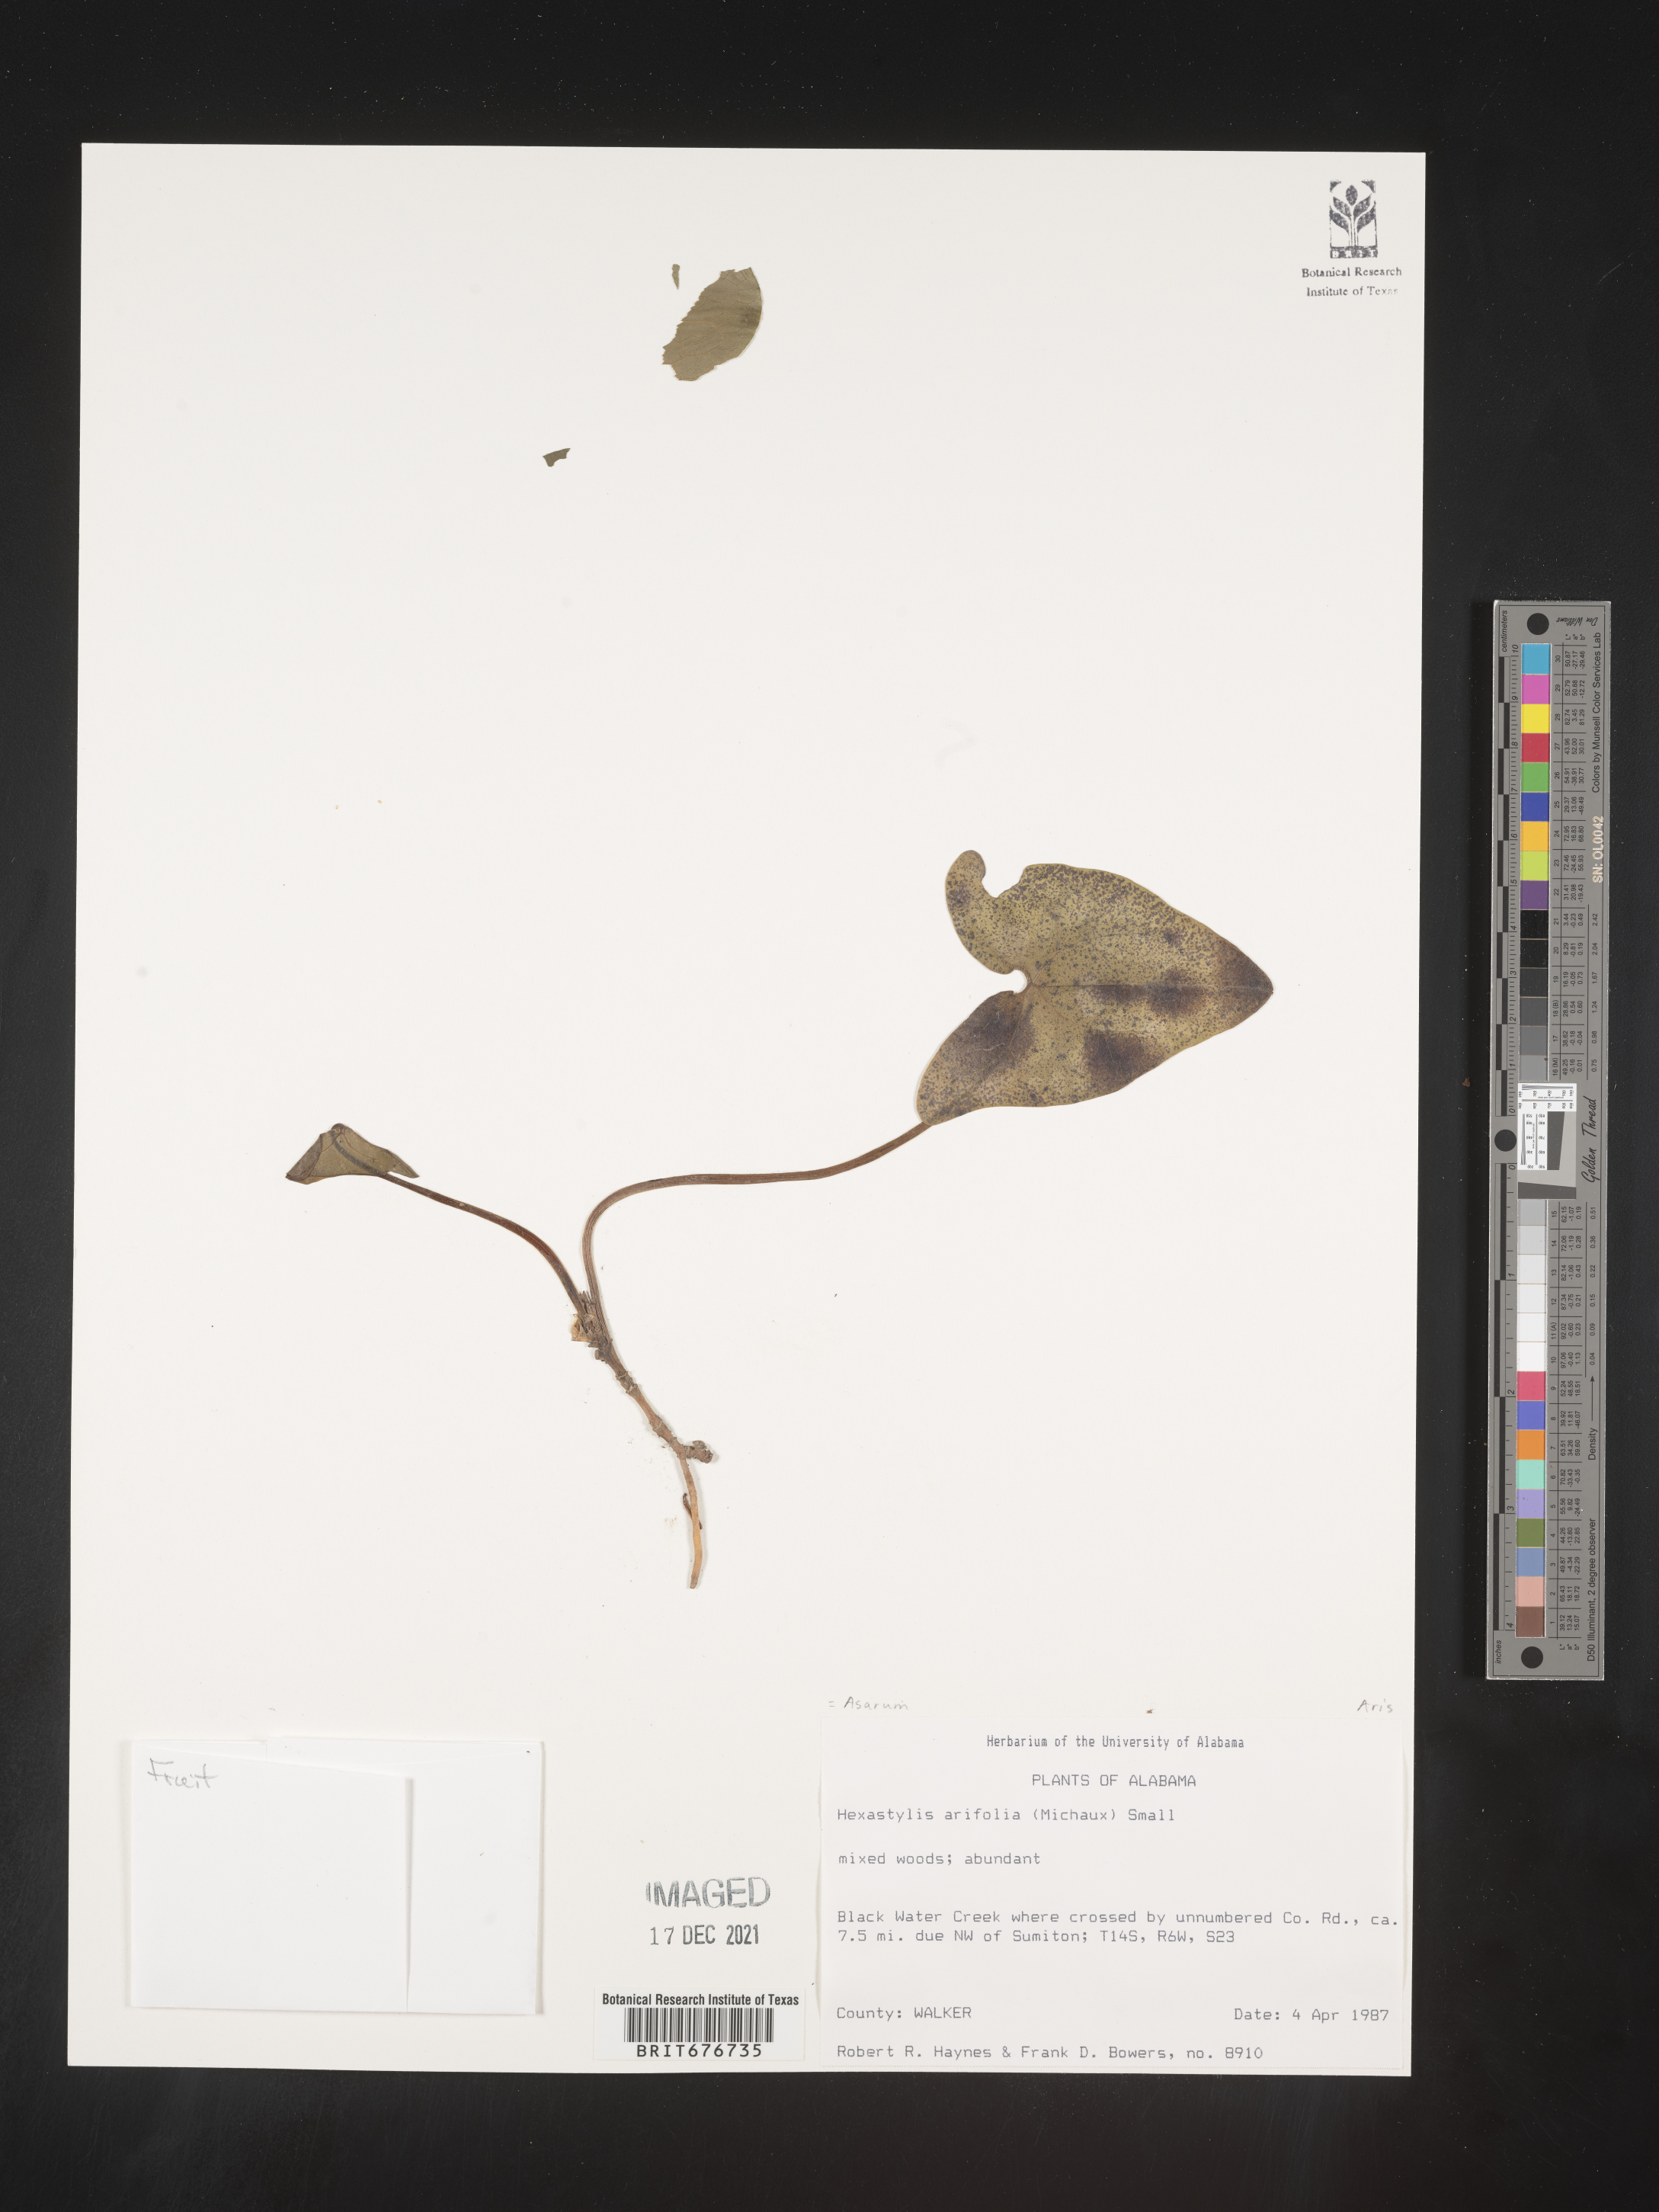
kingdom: Plantae
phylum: Tracheophyta
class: Magnoliopsida
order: Piperales
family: Aristolochiaceae
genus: Hexastylis
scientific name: Hexastylis arifolia
